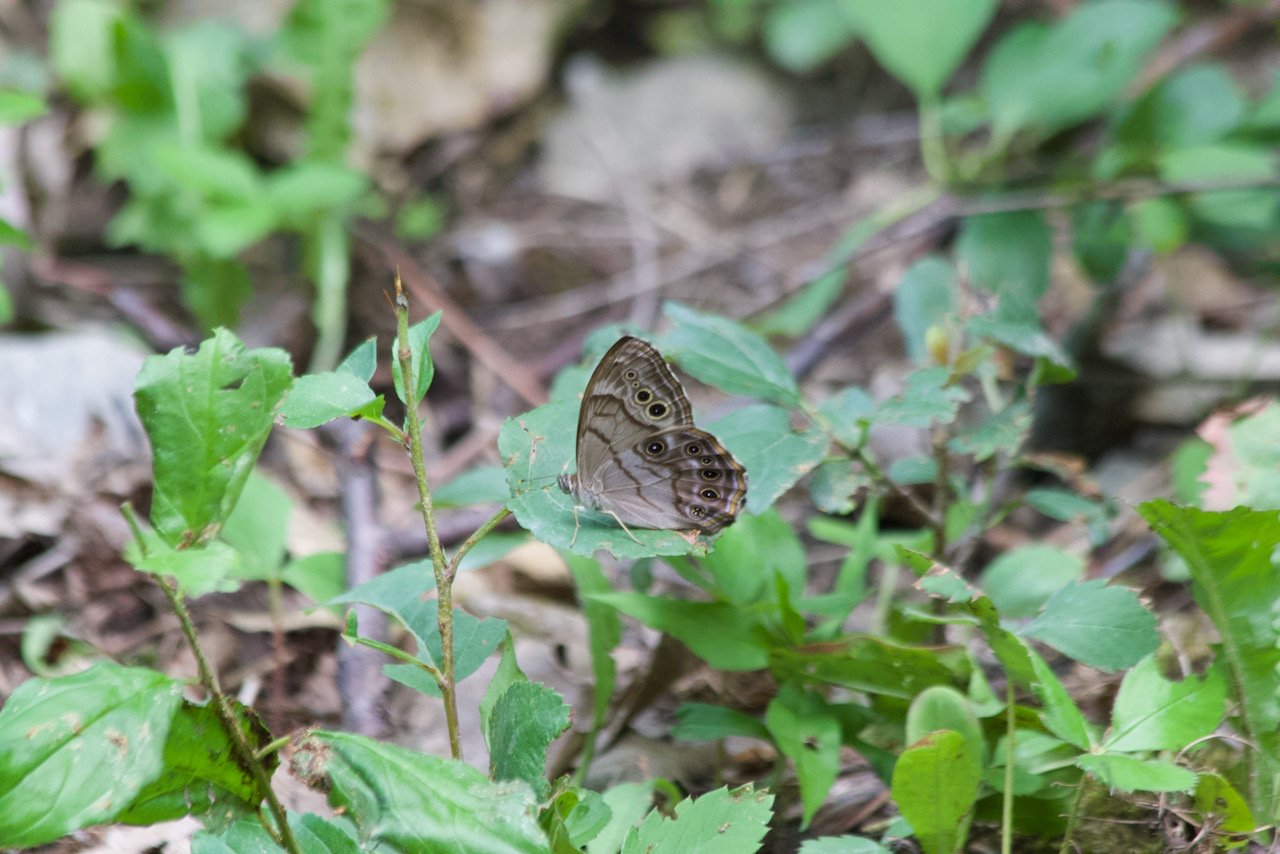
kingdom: Animalia
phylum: Arthropoda
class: Insecta
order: Lepidoptera
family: Nymphalidae
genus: Lethe
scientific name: Lethe anthedon
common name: Northern Pearly-Eye
